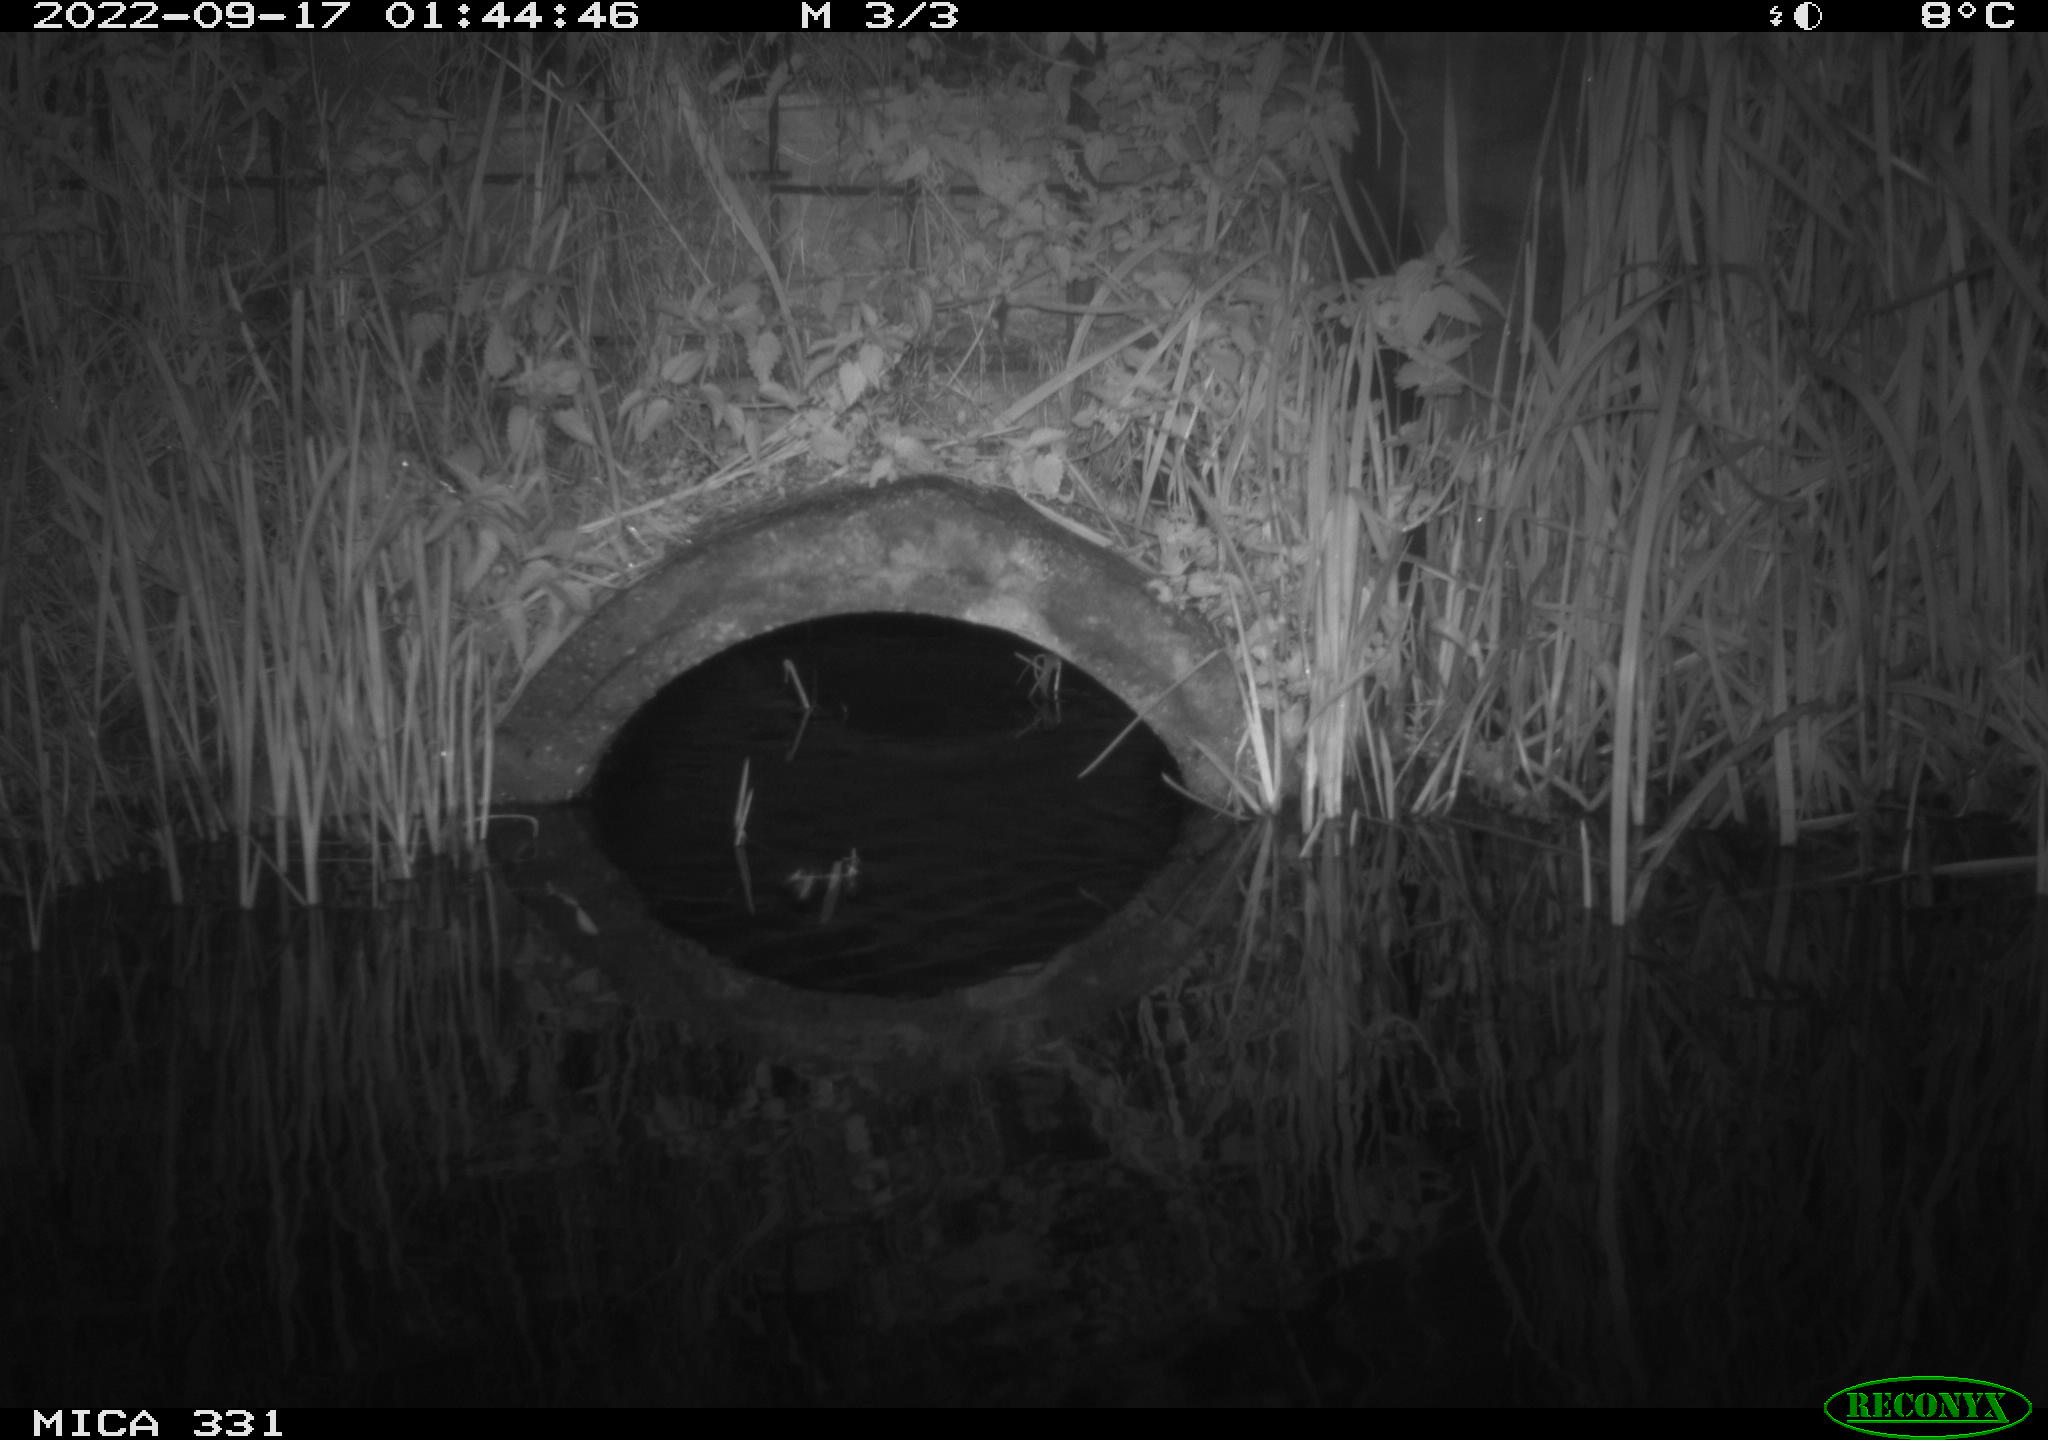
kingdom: Animalia
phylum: Chordata
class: Mammalia
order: Rodentia
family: Muridae
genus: Rattus
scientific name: Rattus norvegicus
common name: Brown rat
